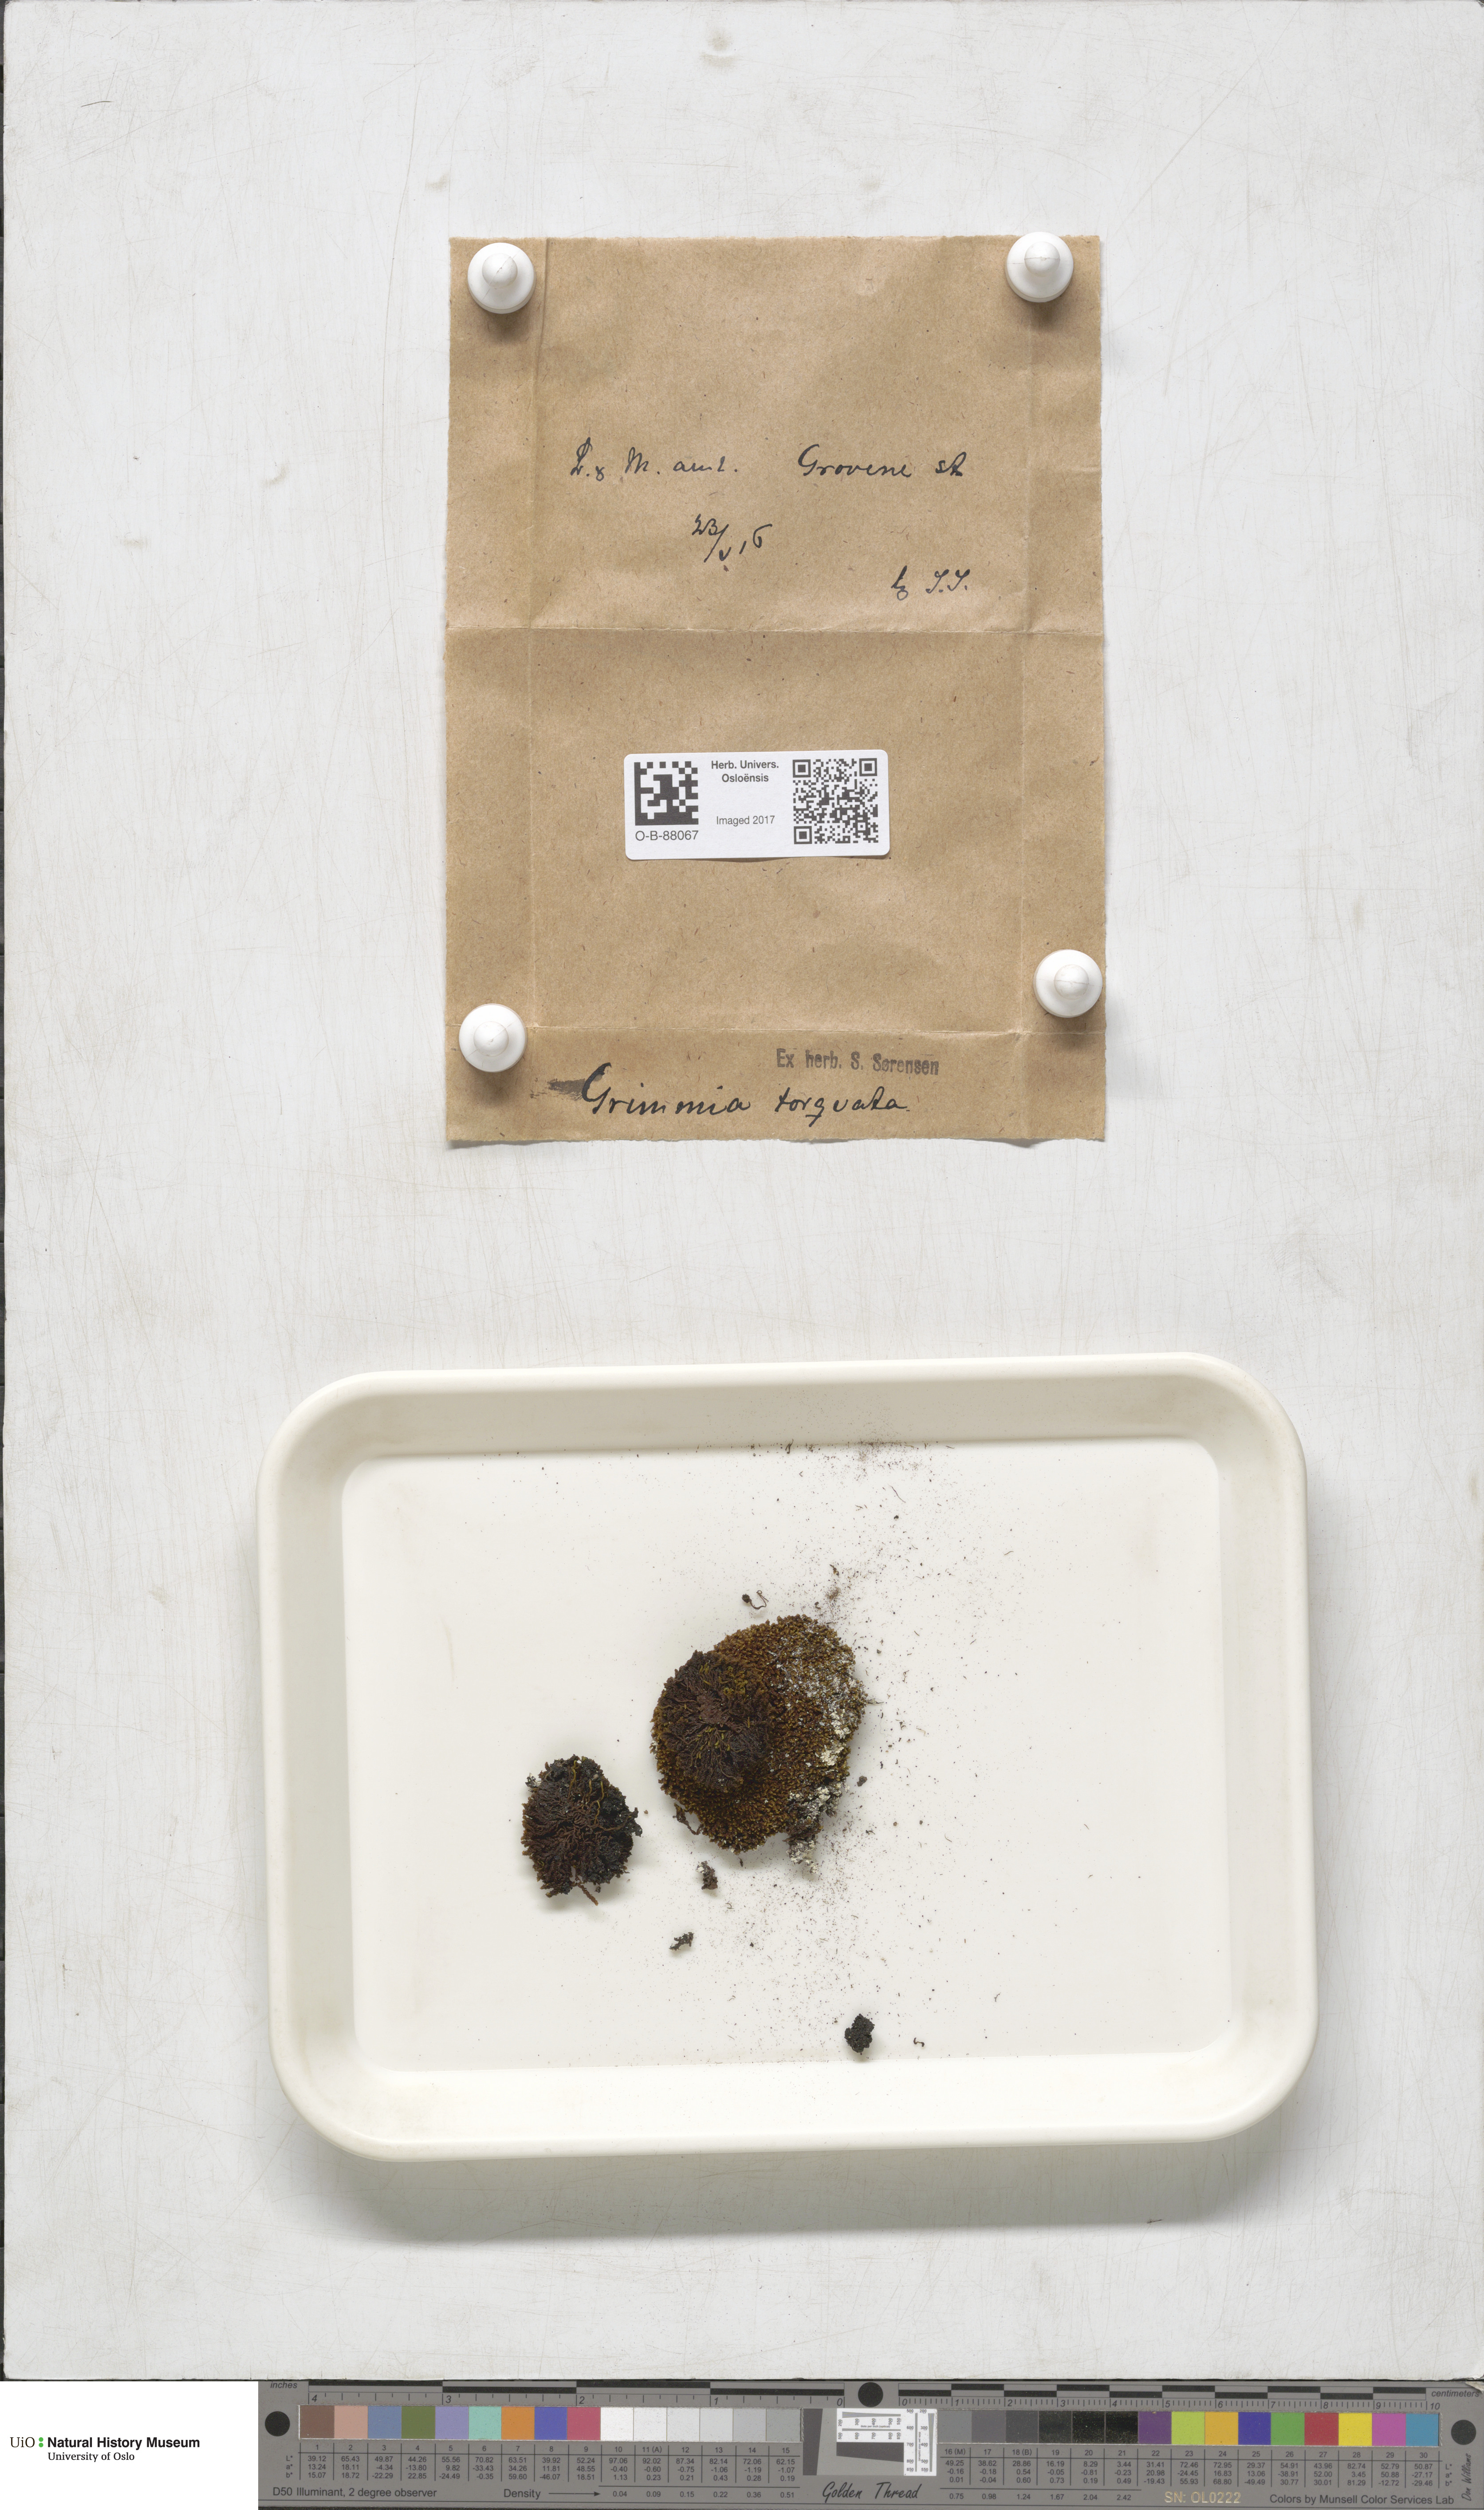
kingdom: Plantae
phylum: Bryophyta
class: Bryopsida
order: Grimmiales
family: Grimmiaceae
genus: Grimmia
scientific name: Grimmia torquata
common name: Twisted grimmia
